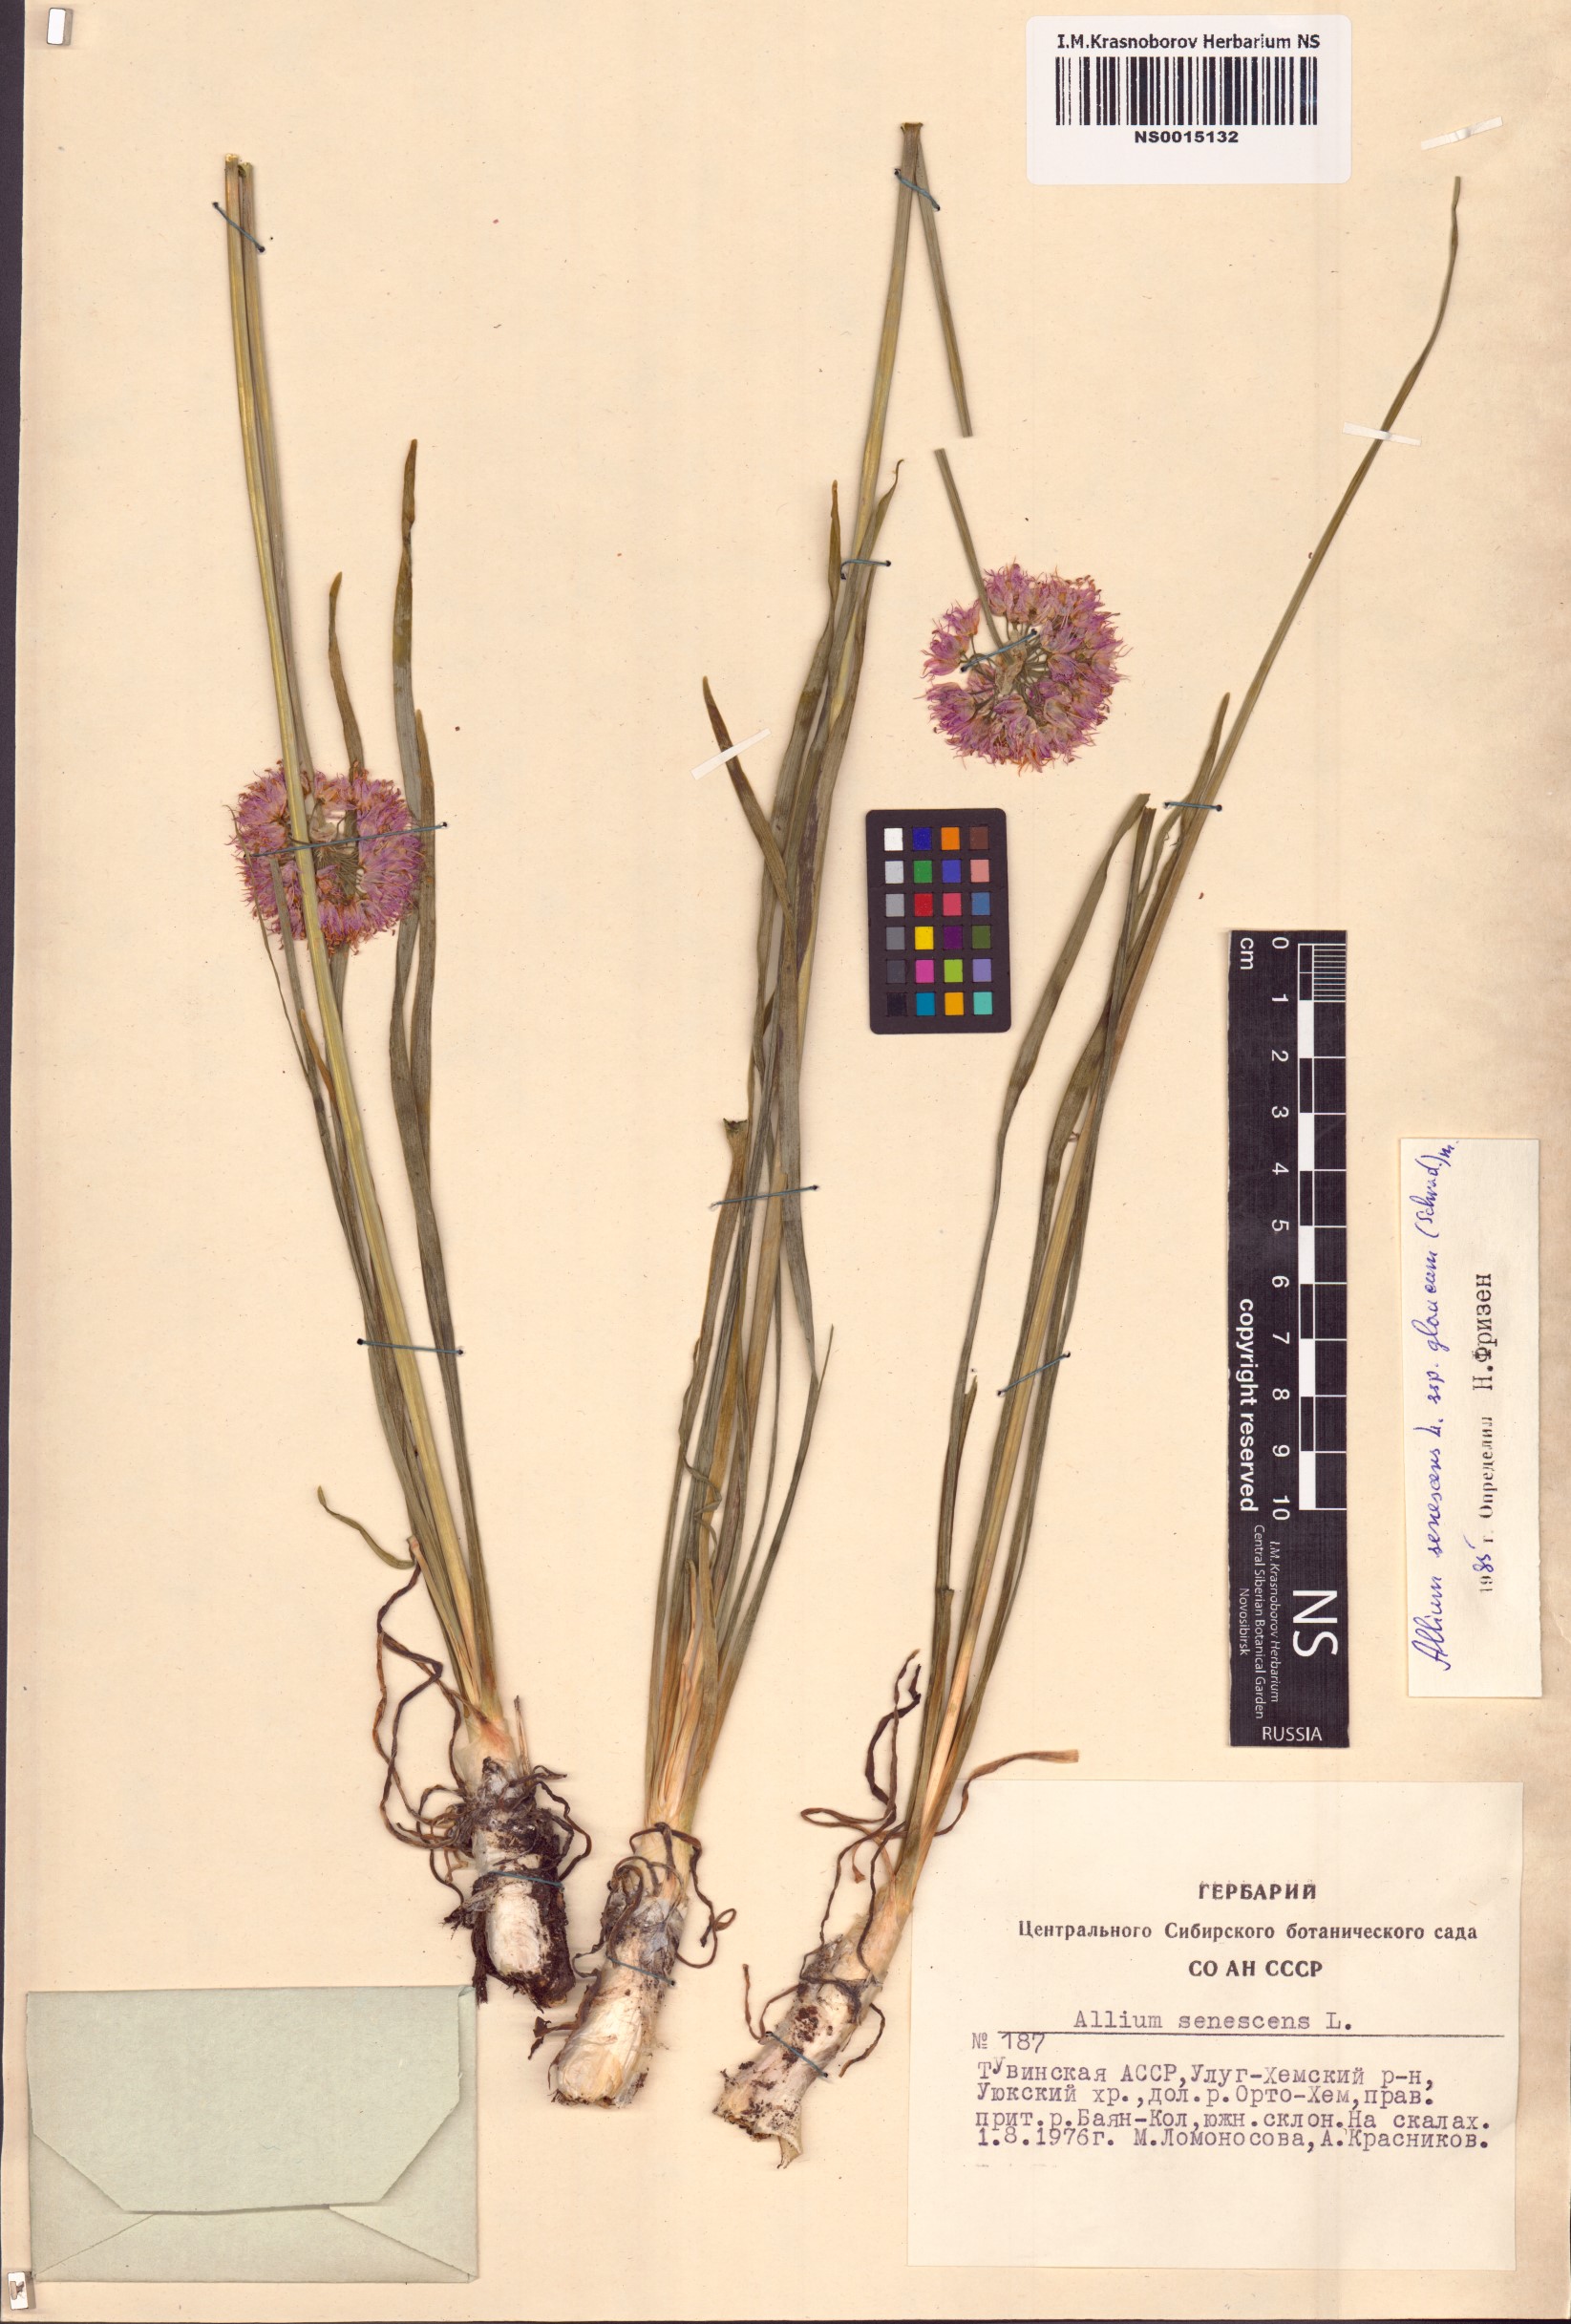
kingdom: Plantae
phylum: Tracheophyta
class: Liliopsida
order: Asparagales
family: Amaryllidaceae
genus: Allium
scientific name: Allium senescens
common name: German garlic
